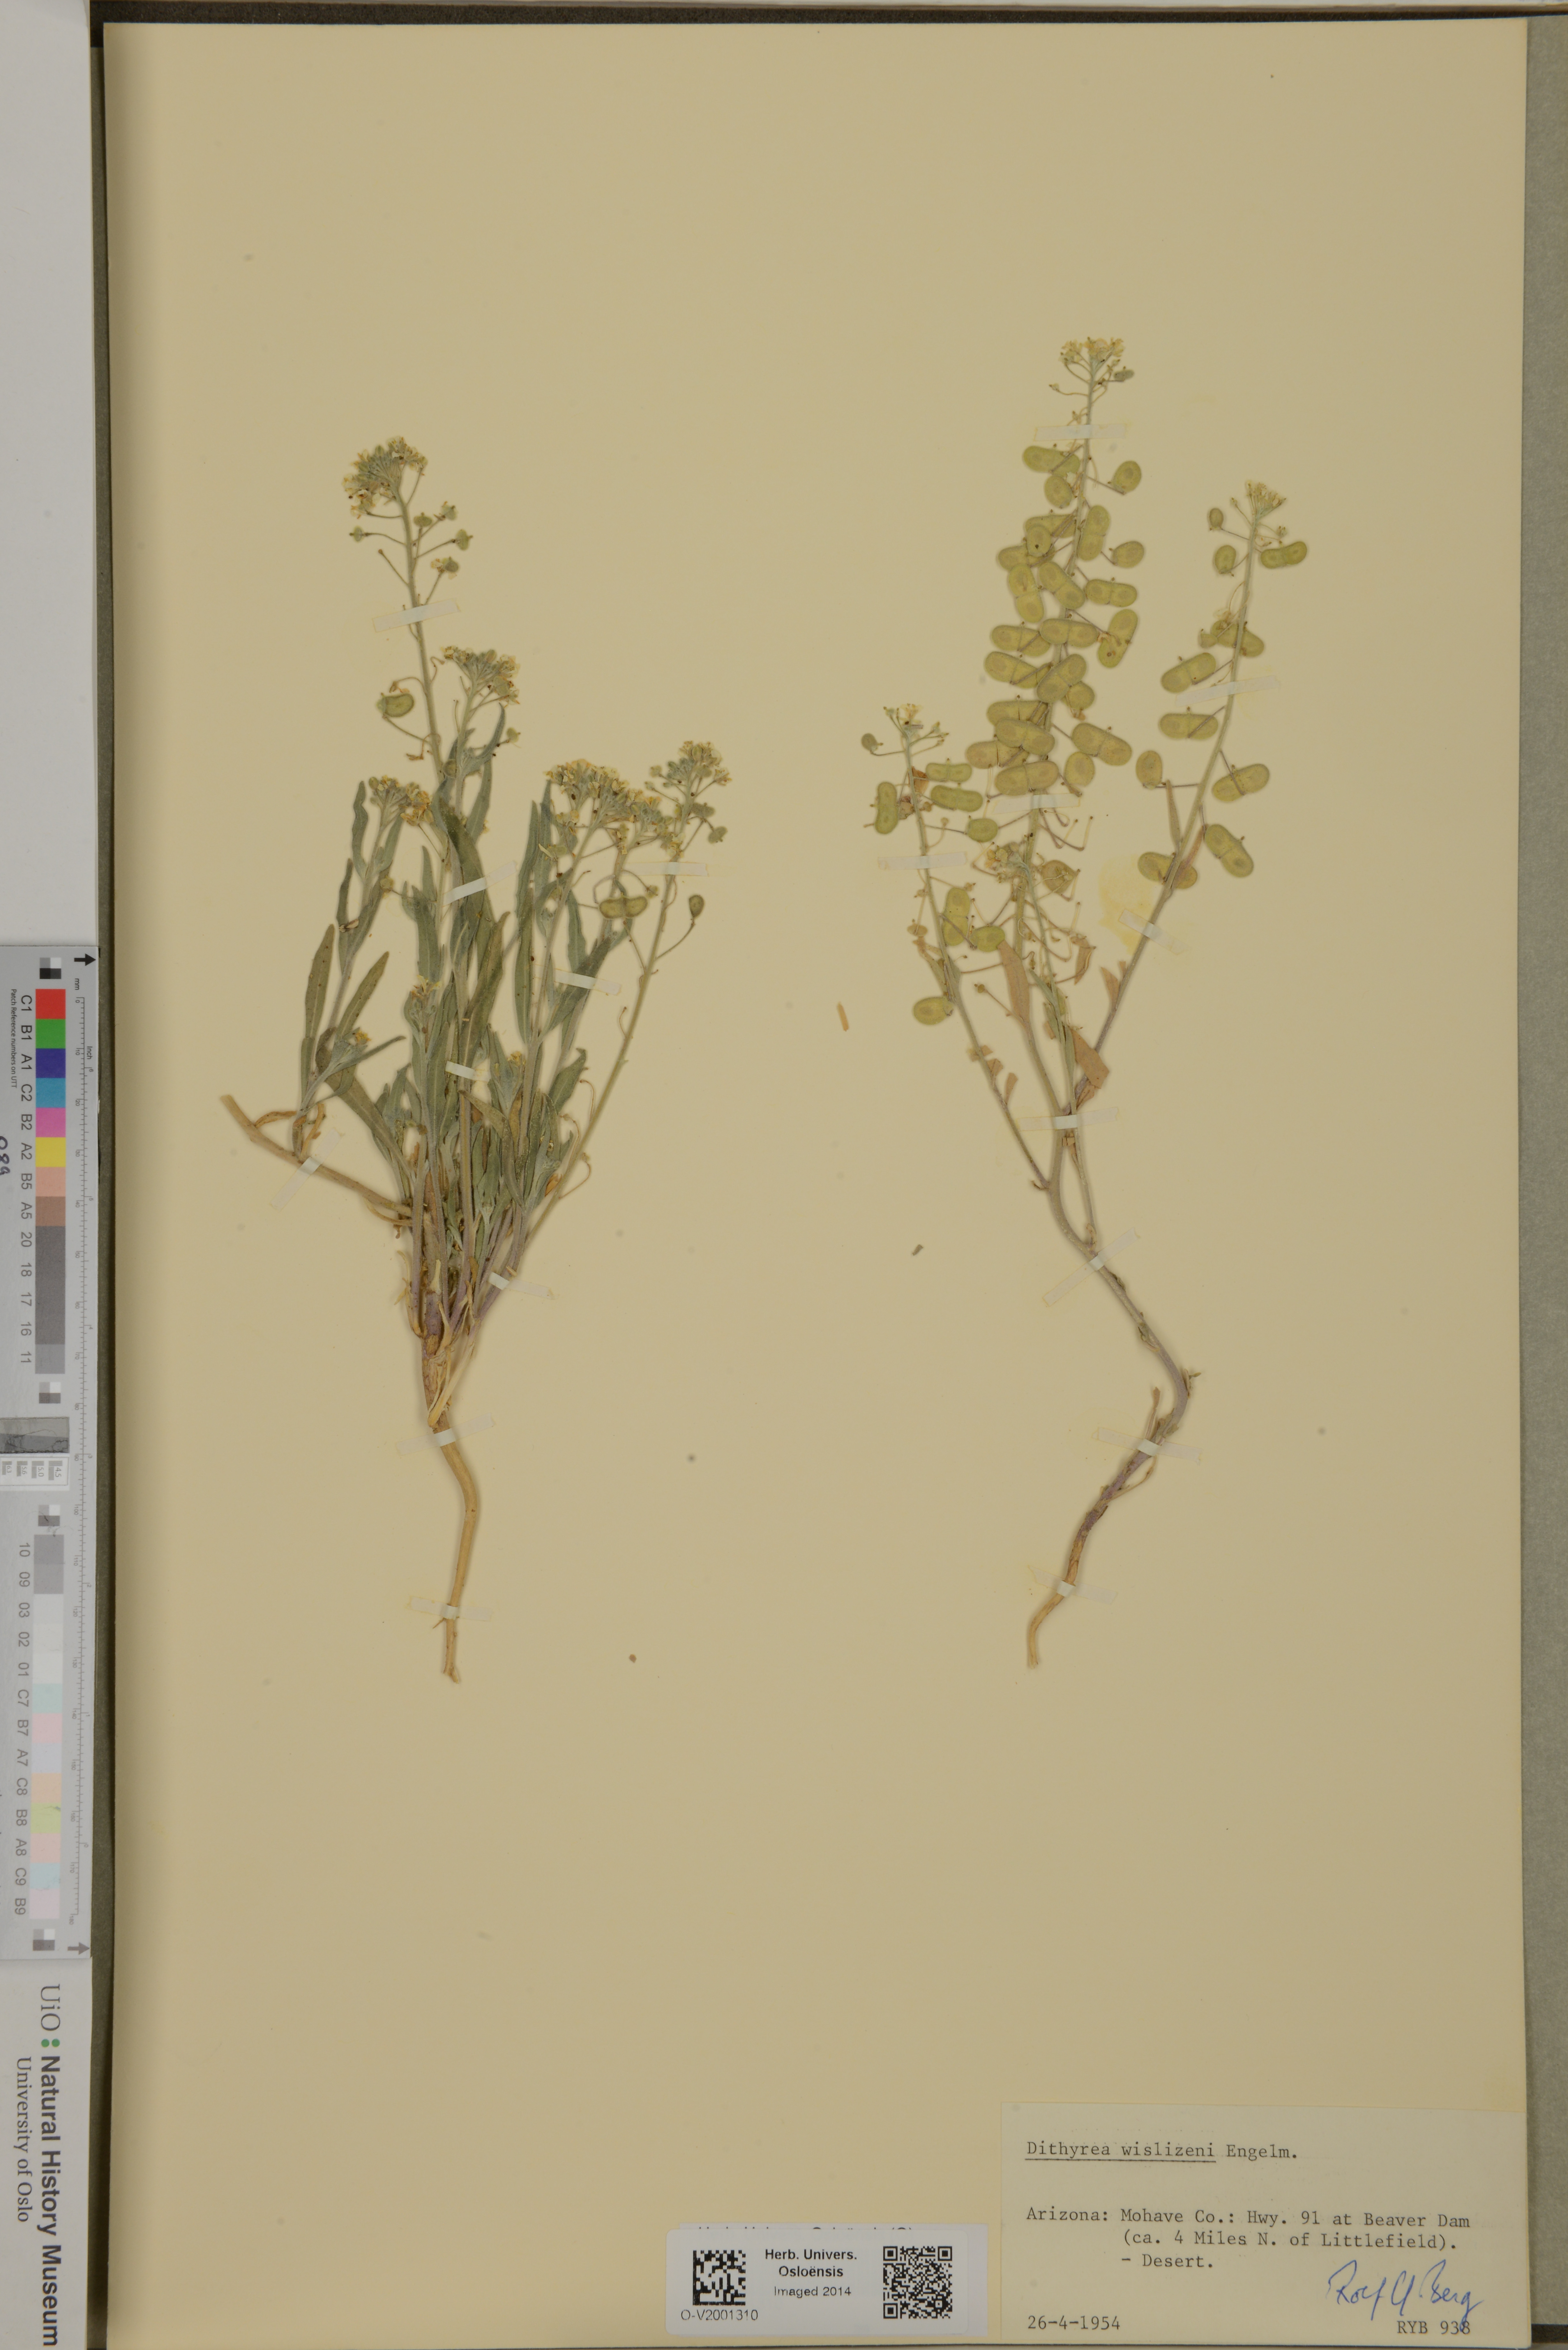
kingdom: Plantae
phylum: Tracheophyta
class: Magnoliopsida
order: Brassicales
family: Brassicaceae
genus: Dimorphocarpa
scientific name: Dimorphocarpa wislizenii
